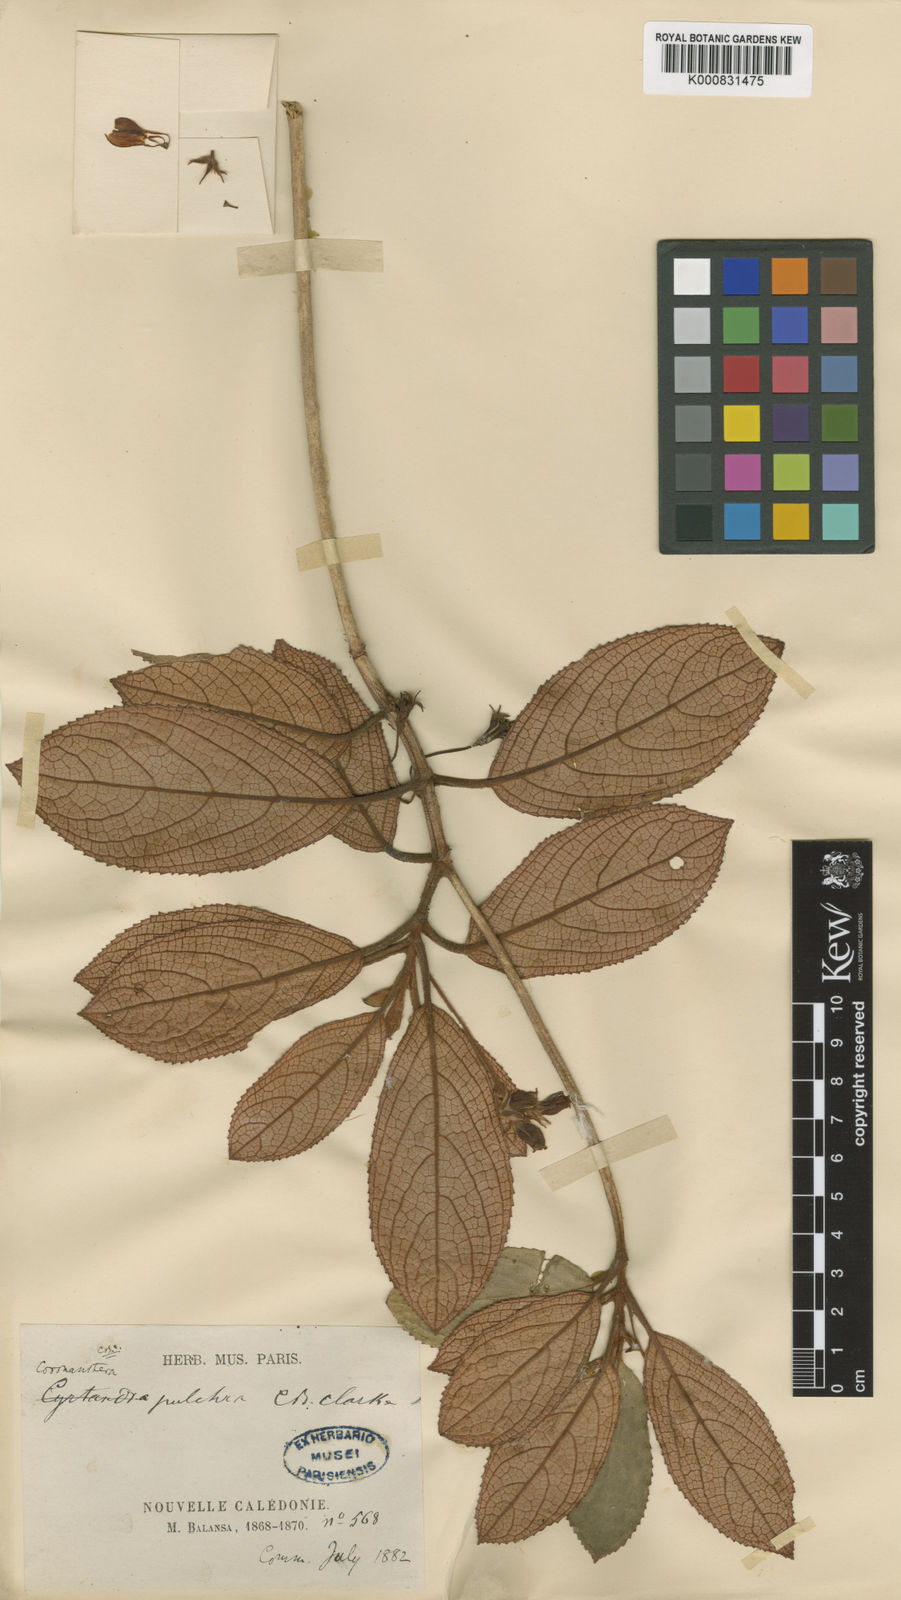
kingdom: Plantae
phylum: Tracheophyta
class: Magnoliopsida
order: Lamiales
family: Gesneriaceae
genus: Coronanthera
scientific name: Coronanthera pulchra
